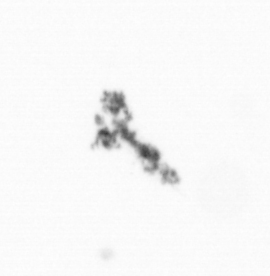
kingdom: Animalia
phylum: Arthropoda
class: Copepoda
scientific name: Copepoda
